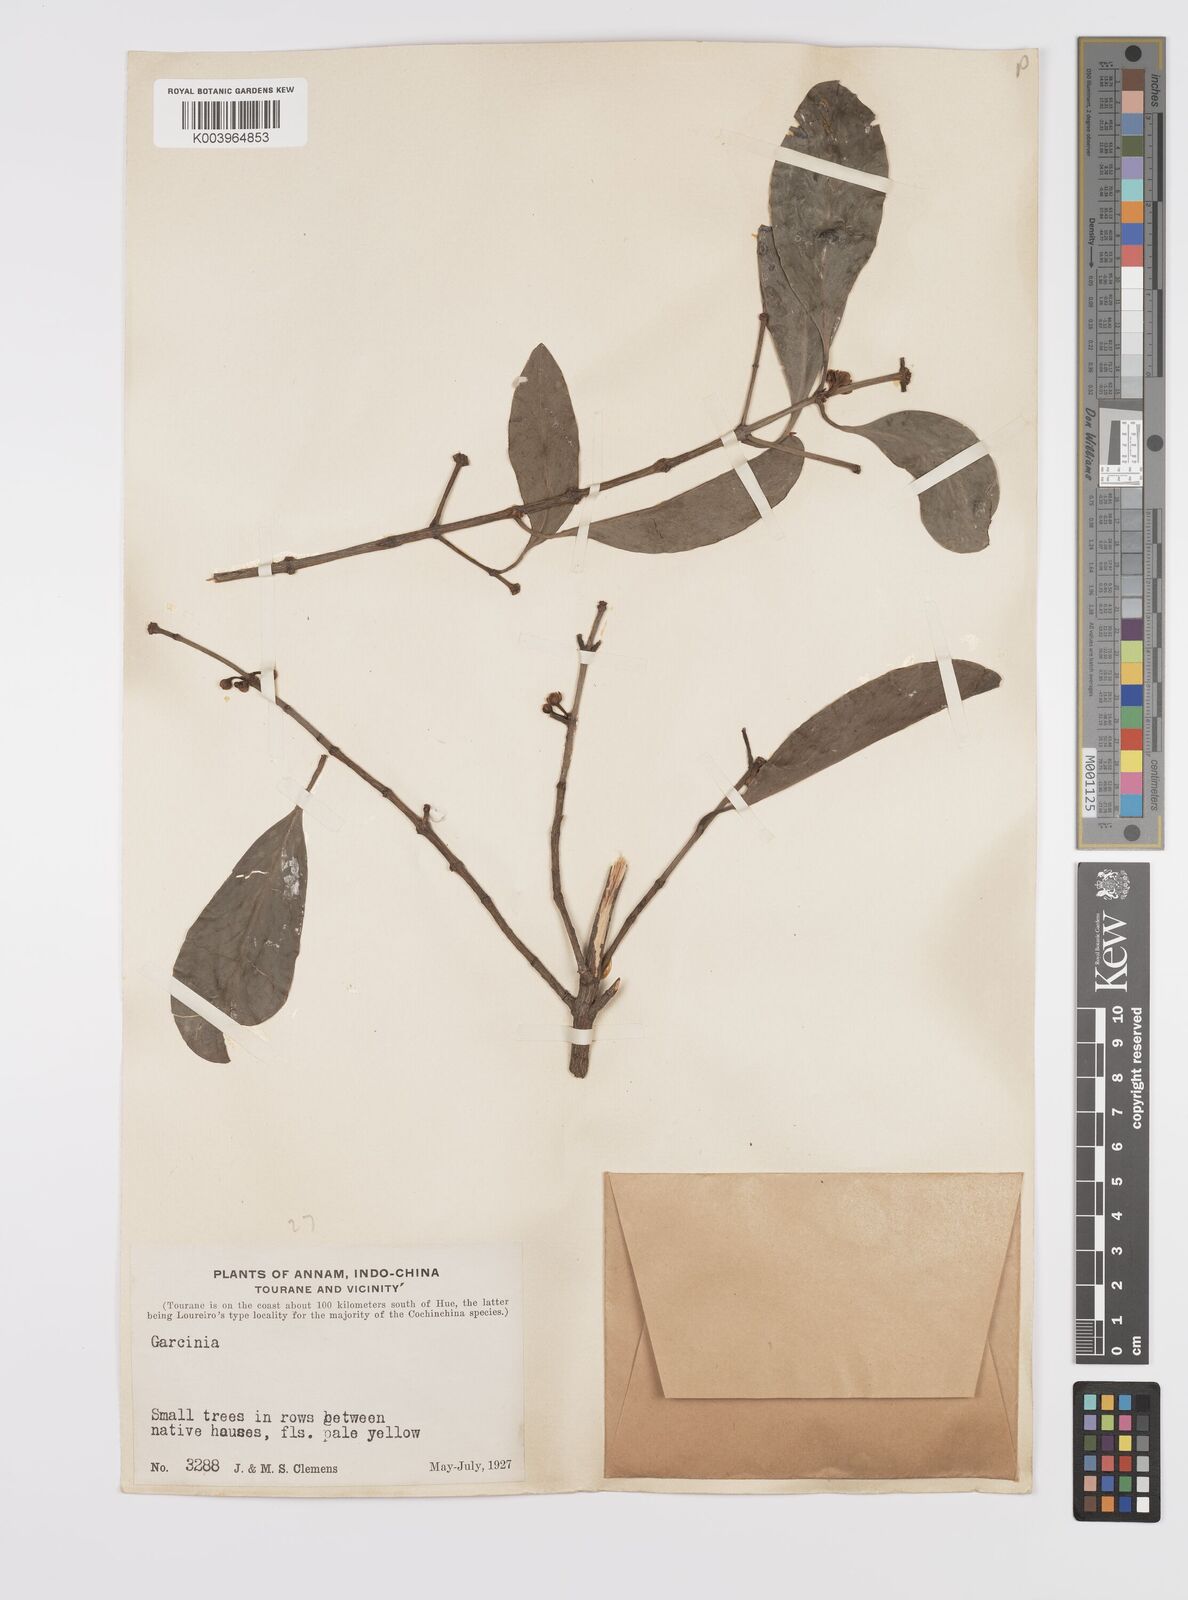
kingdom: Plantae
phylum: Tracheophyta
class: Magnoliopsida
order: Malpighiales
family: Clusiaceae
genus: Garcinia
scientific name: Garcinia
